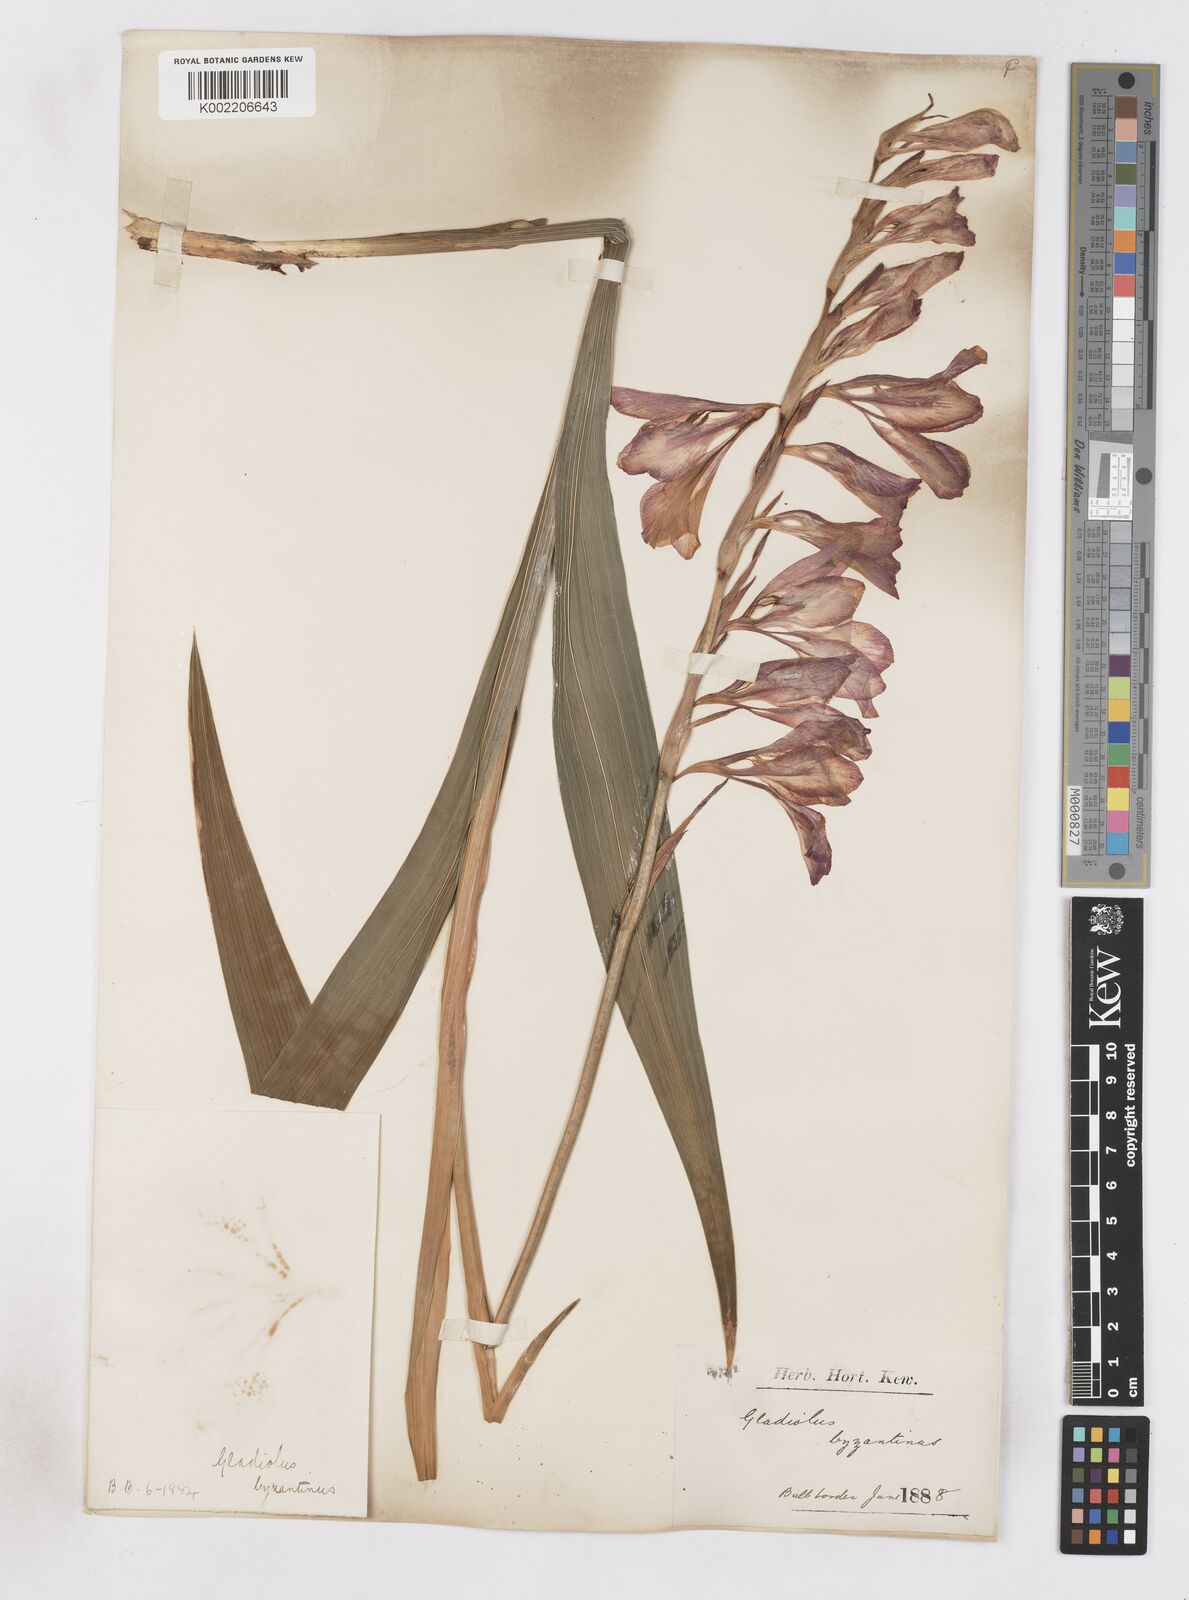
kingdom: Plantae
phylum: Tracheophyta
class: Liliopsida
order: Asparagales
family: Iridaceae
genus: Gladiolus
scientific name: Gladiolus byzantinus
